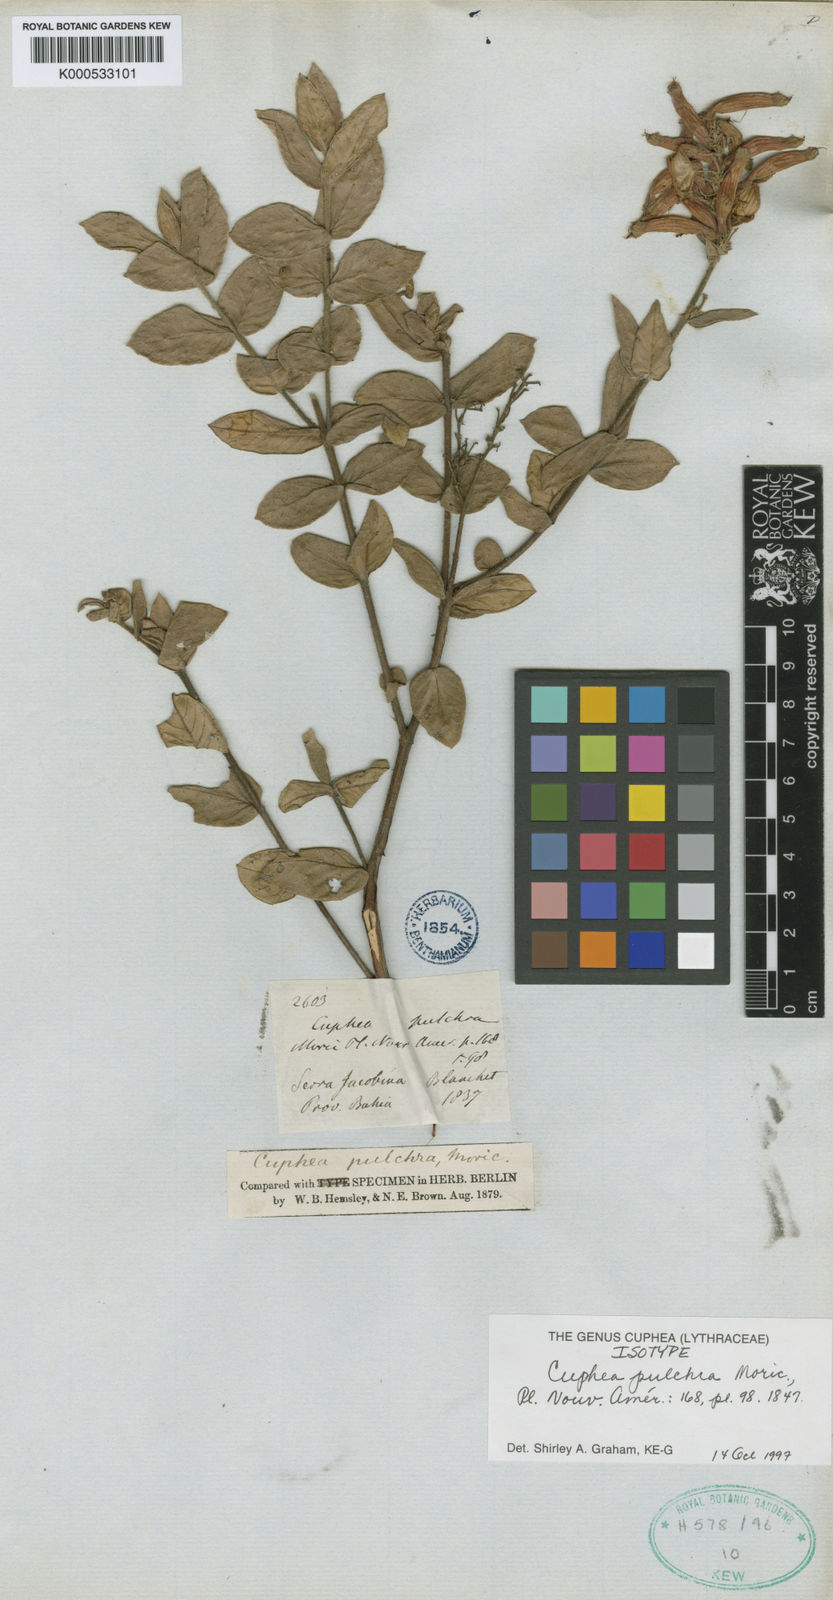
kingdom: Plantae
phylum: Tracheophyta
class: Magnoliopsida
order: Myrtales
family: Lythraceae
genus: Cuphea
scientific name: Cuphea pulchra
